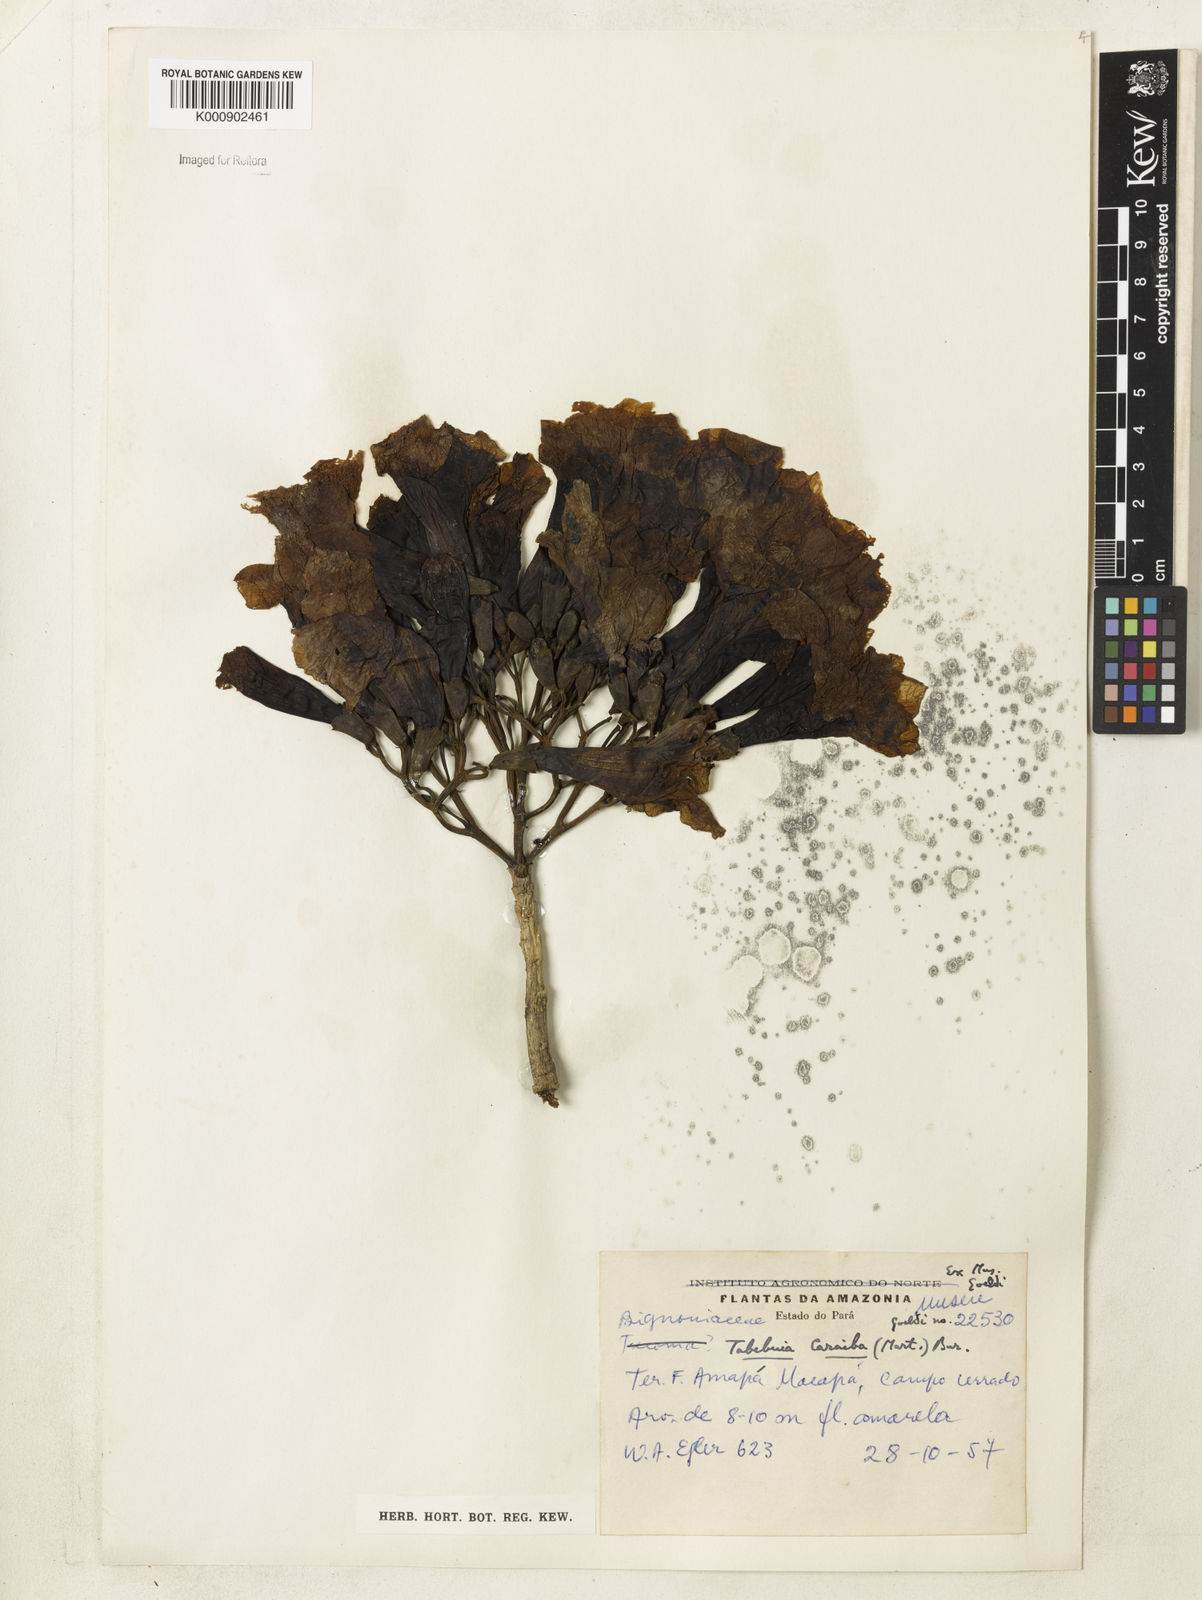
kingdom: Plantae
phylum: Tracheophyta
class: Magnoliopsida
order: Lamiales
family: Bignoniaceae
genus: Tabebuia
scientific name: Tabebuia aurea
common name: Caribbean trumpet-tree
